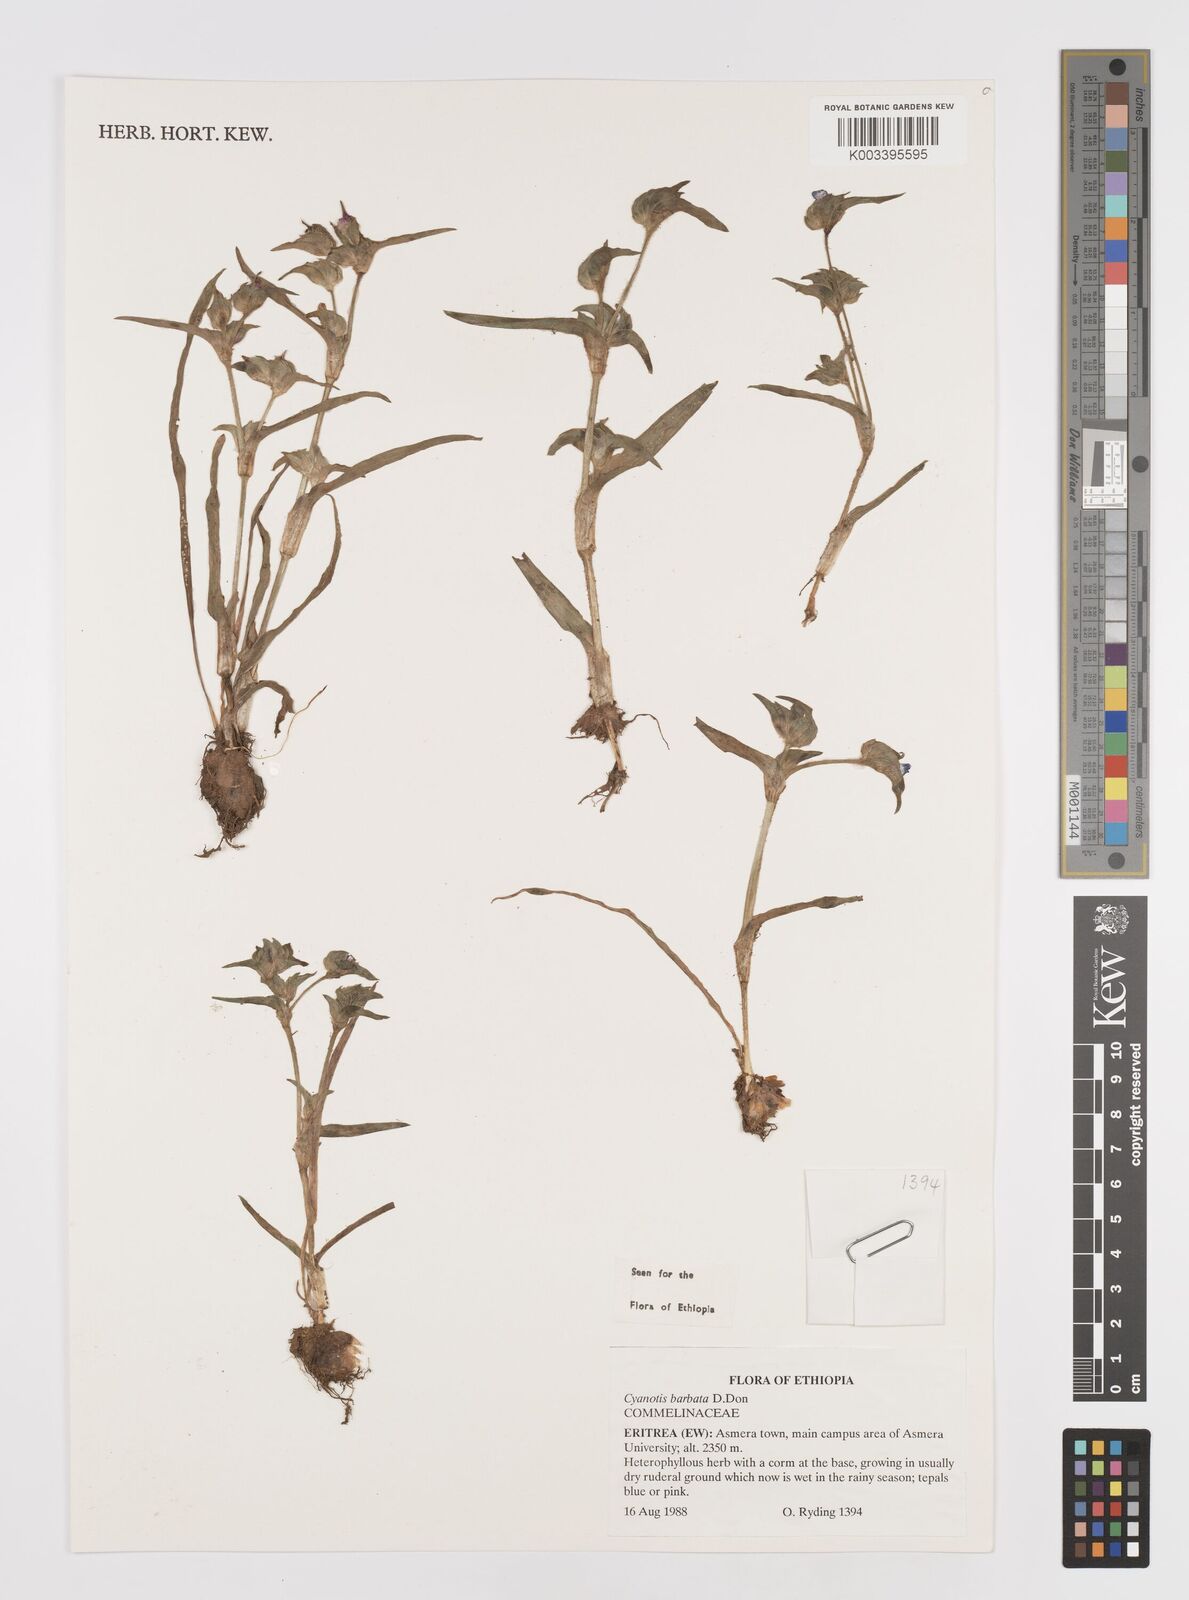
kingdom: Plantae
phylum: Tracheophyta
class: Liliopsida
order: Commelinales
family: Commelinaceae
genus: Cyanotis
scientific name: Cyanotis vaga
